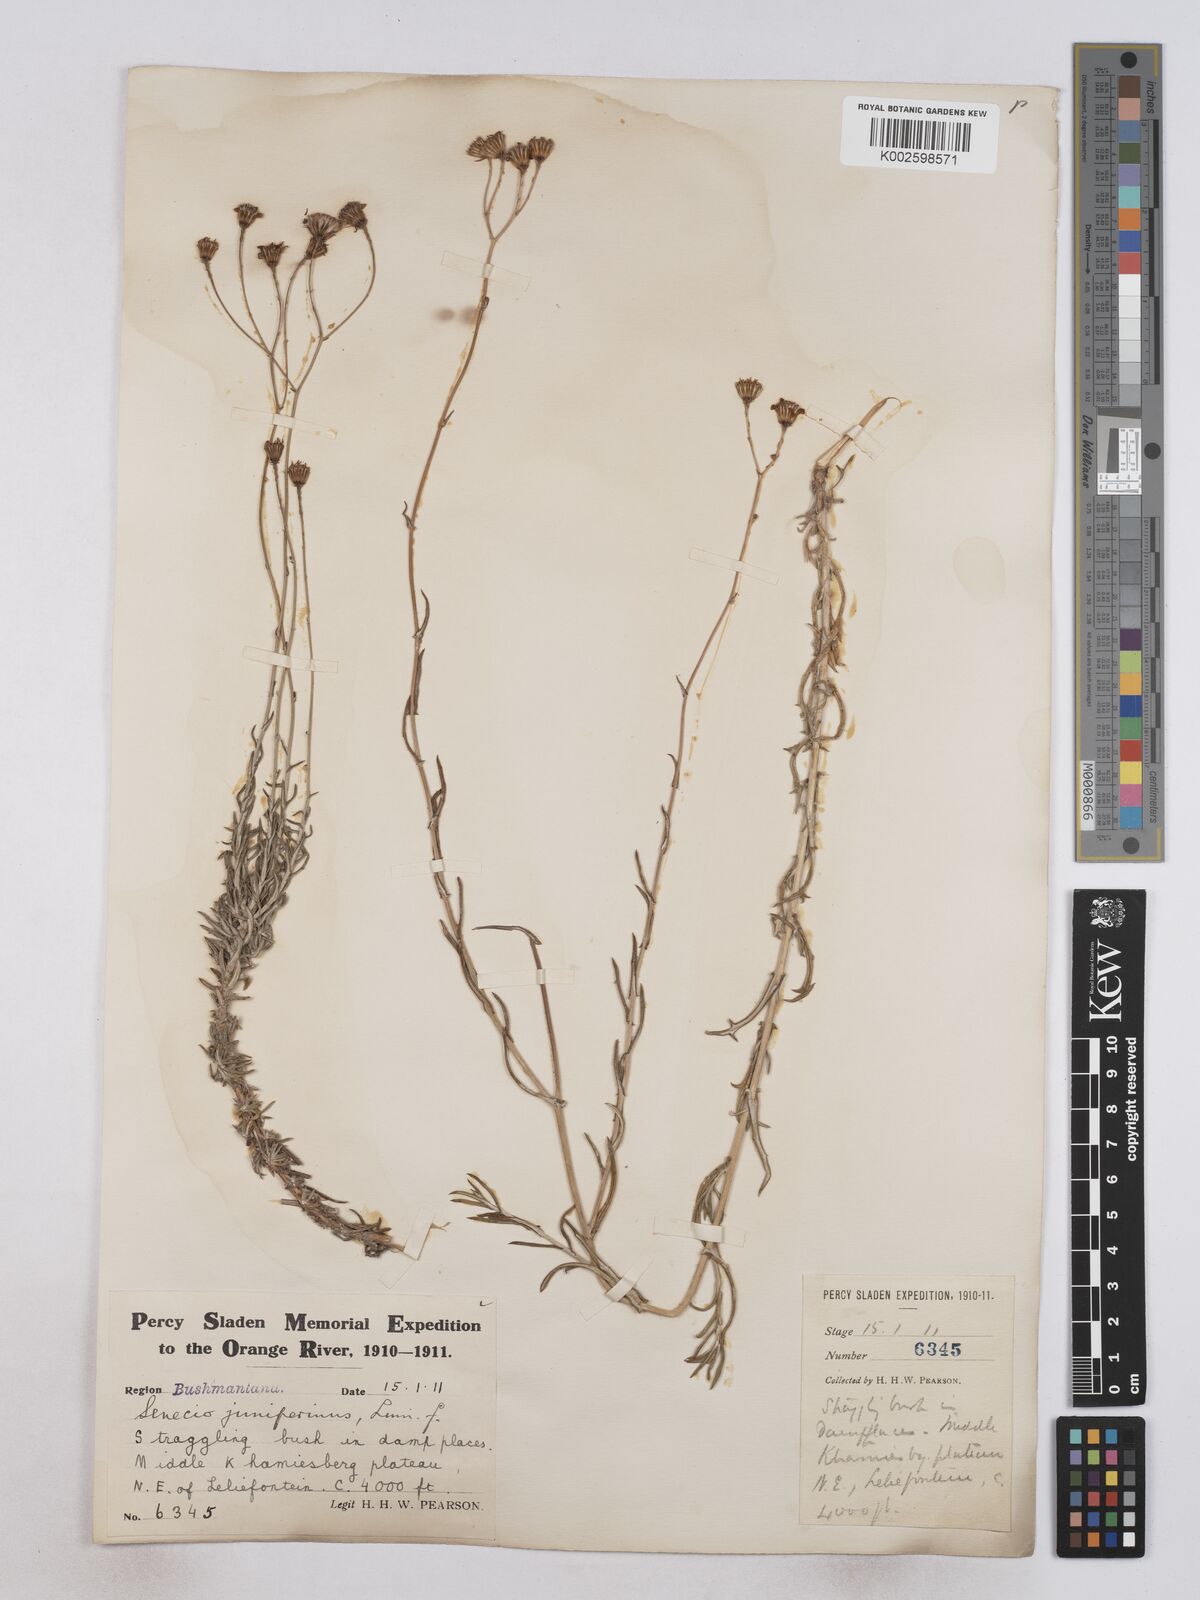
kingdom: Plantae
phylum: Tracheophyta
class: Magnoliopsida
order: Asterales
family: Asteraceae
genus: Senecio
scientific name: Senecio juniperinus
